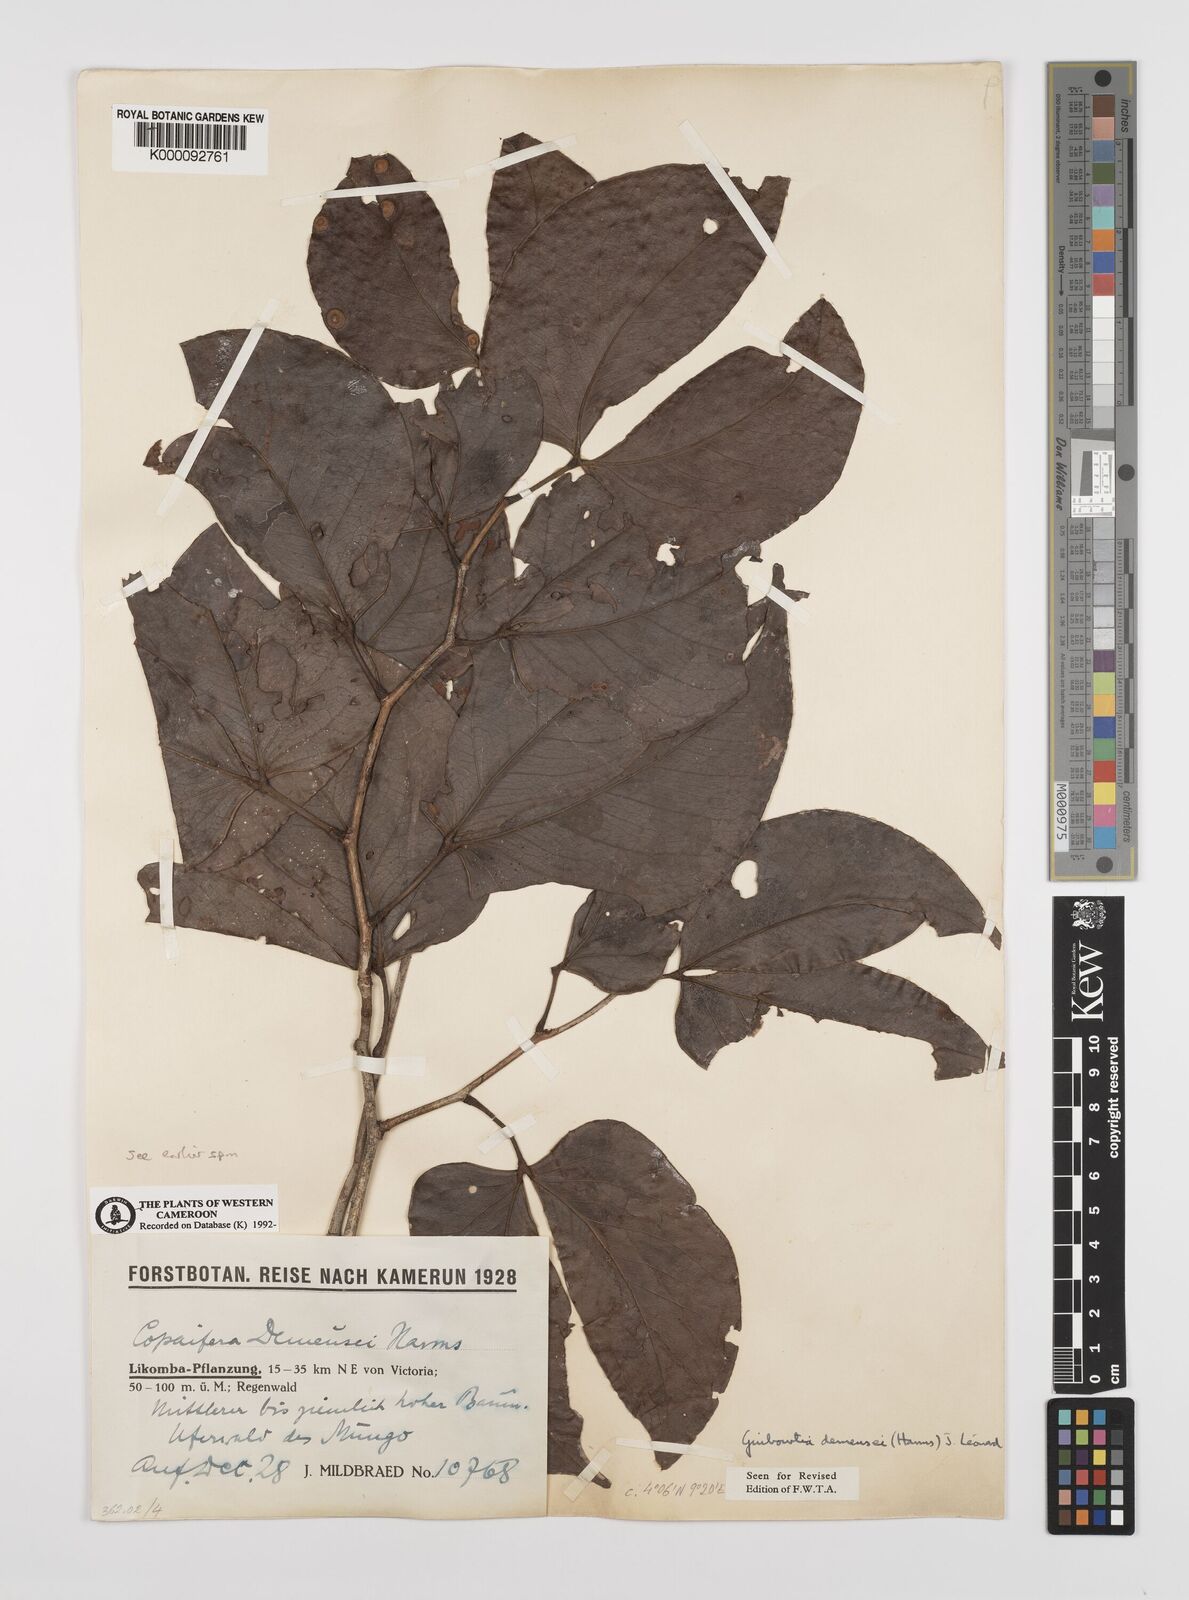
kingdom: Plantae
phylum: Tracheophyta
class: Magnoliopsida
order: Fabales
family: Fabaceae
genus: Guibourtia
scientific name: Guibourtia
